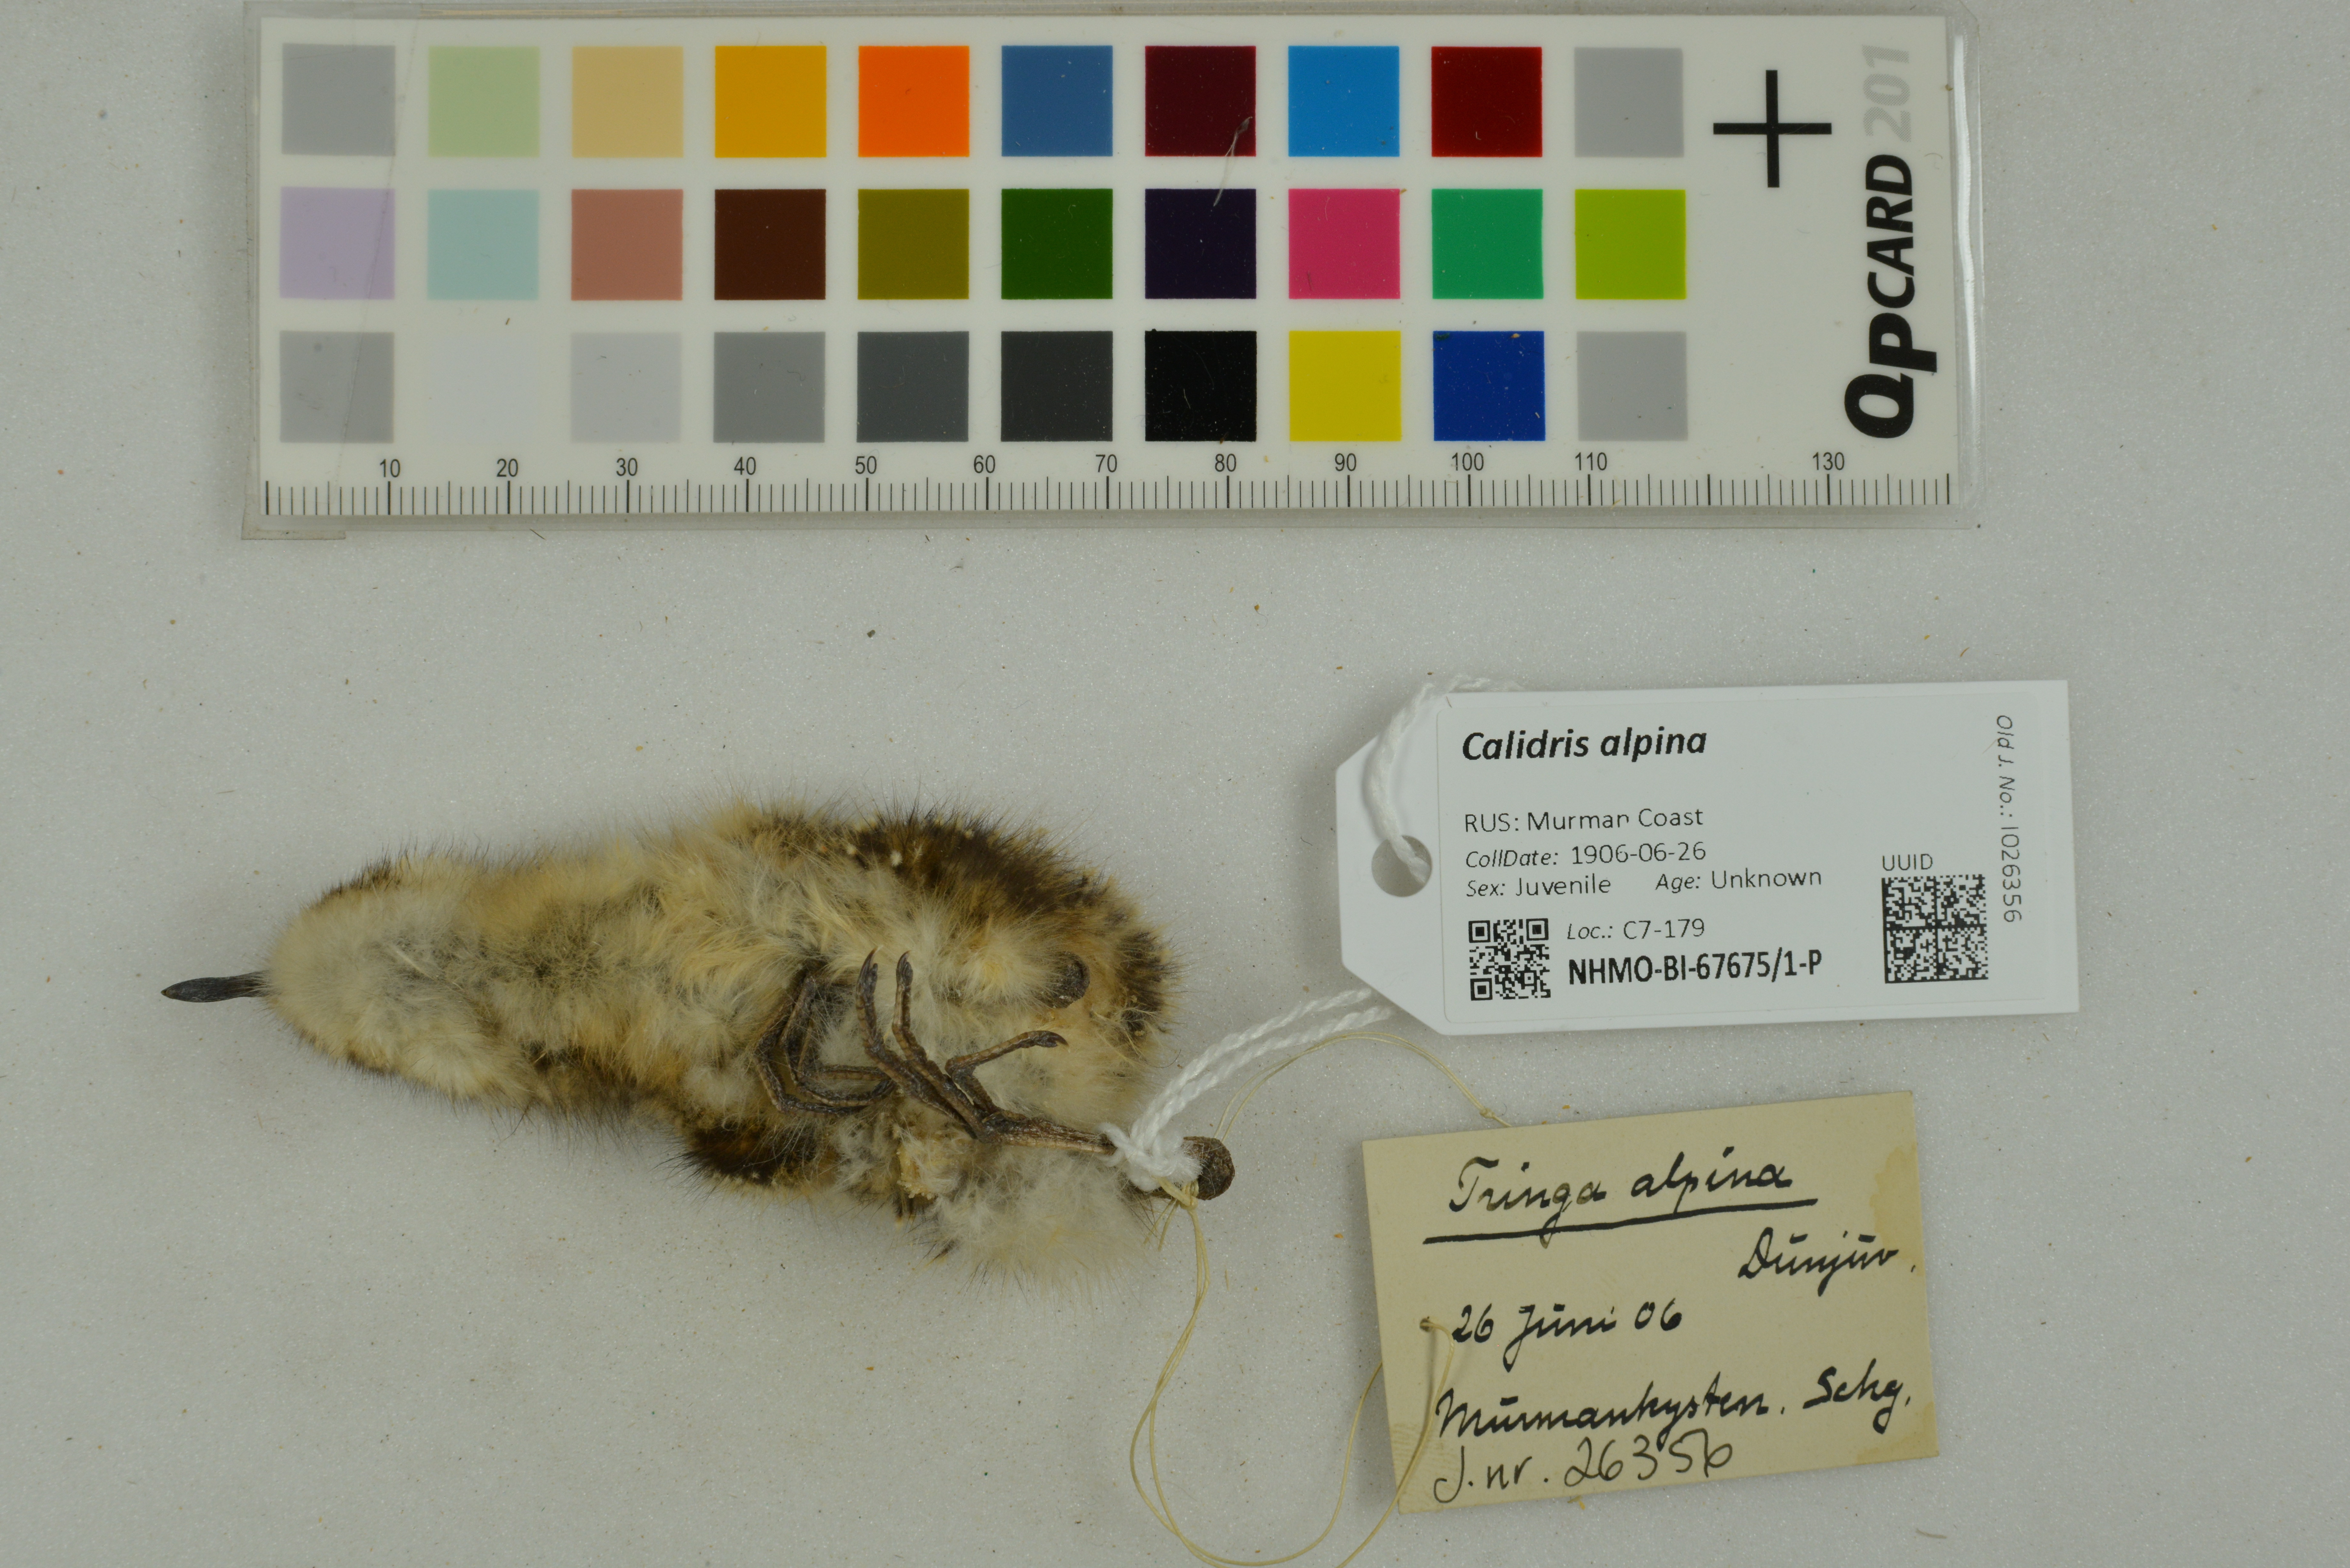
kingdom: Animalia
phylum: Chordata
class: Aves
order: Charadriiformes
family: Scolopacidae
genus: Calidris
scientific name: Calidris alpina
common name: Dunlin
